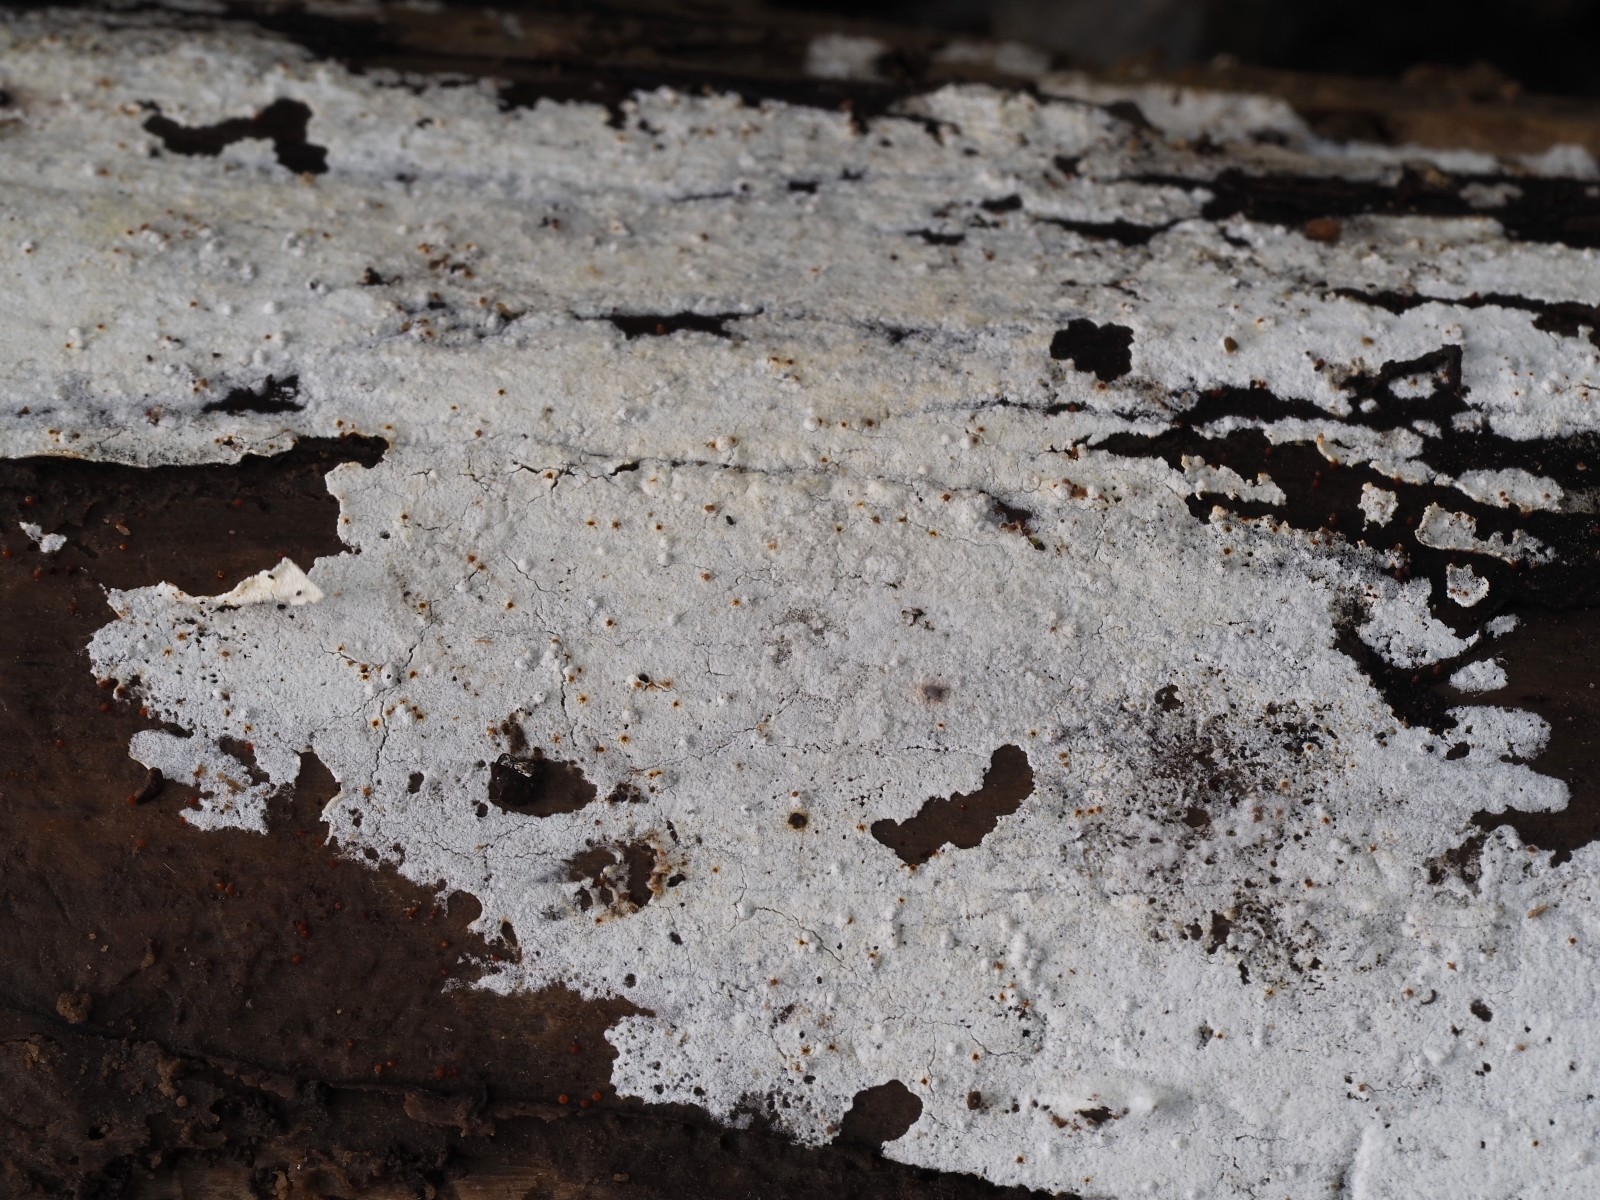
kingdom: Fungi
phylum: Basidiomycota
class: Agaricomycetes
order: Polyporales
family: Meruliaceae
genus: Gyrophanopsis
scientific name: Gyrophanopsis polonensis
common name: langhåret kalkskind
